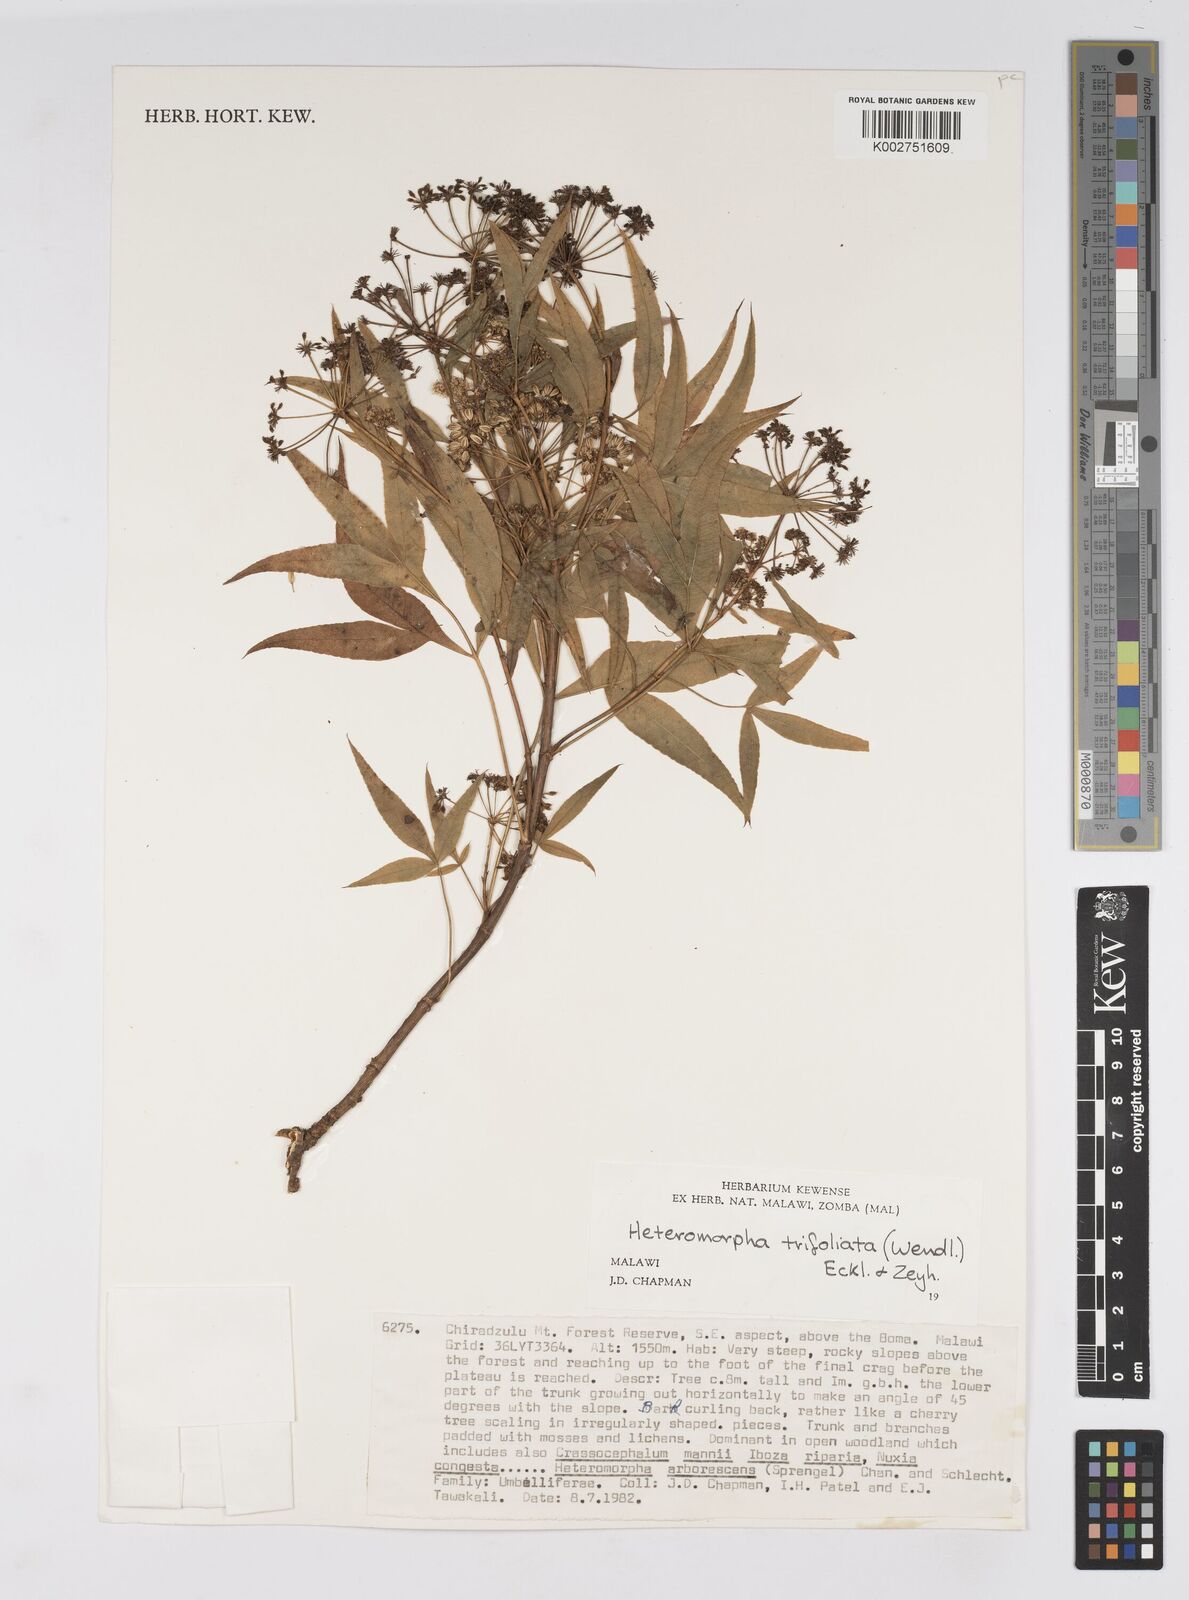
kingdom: Plantae
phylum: Tracheophyta
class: Magnoliopsida
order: Apiales
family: Apiaceae
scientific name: Apiaceae
